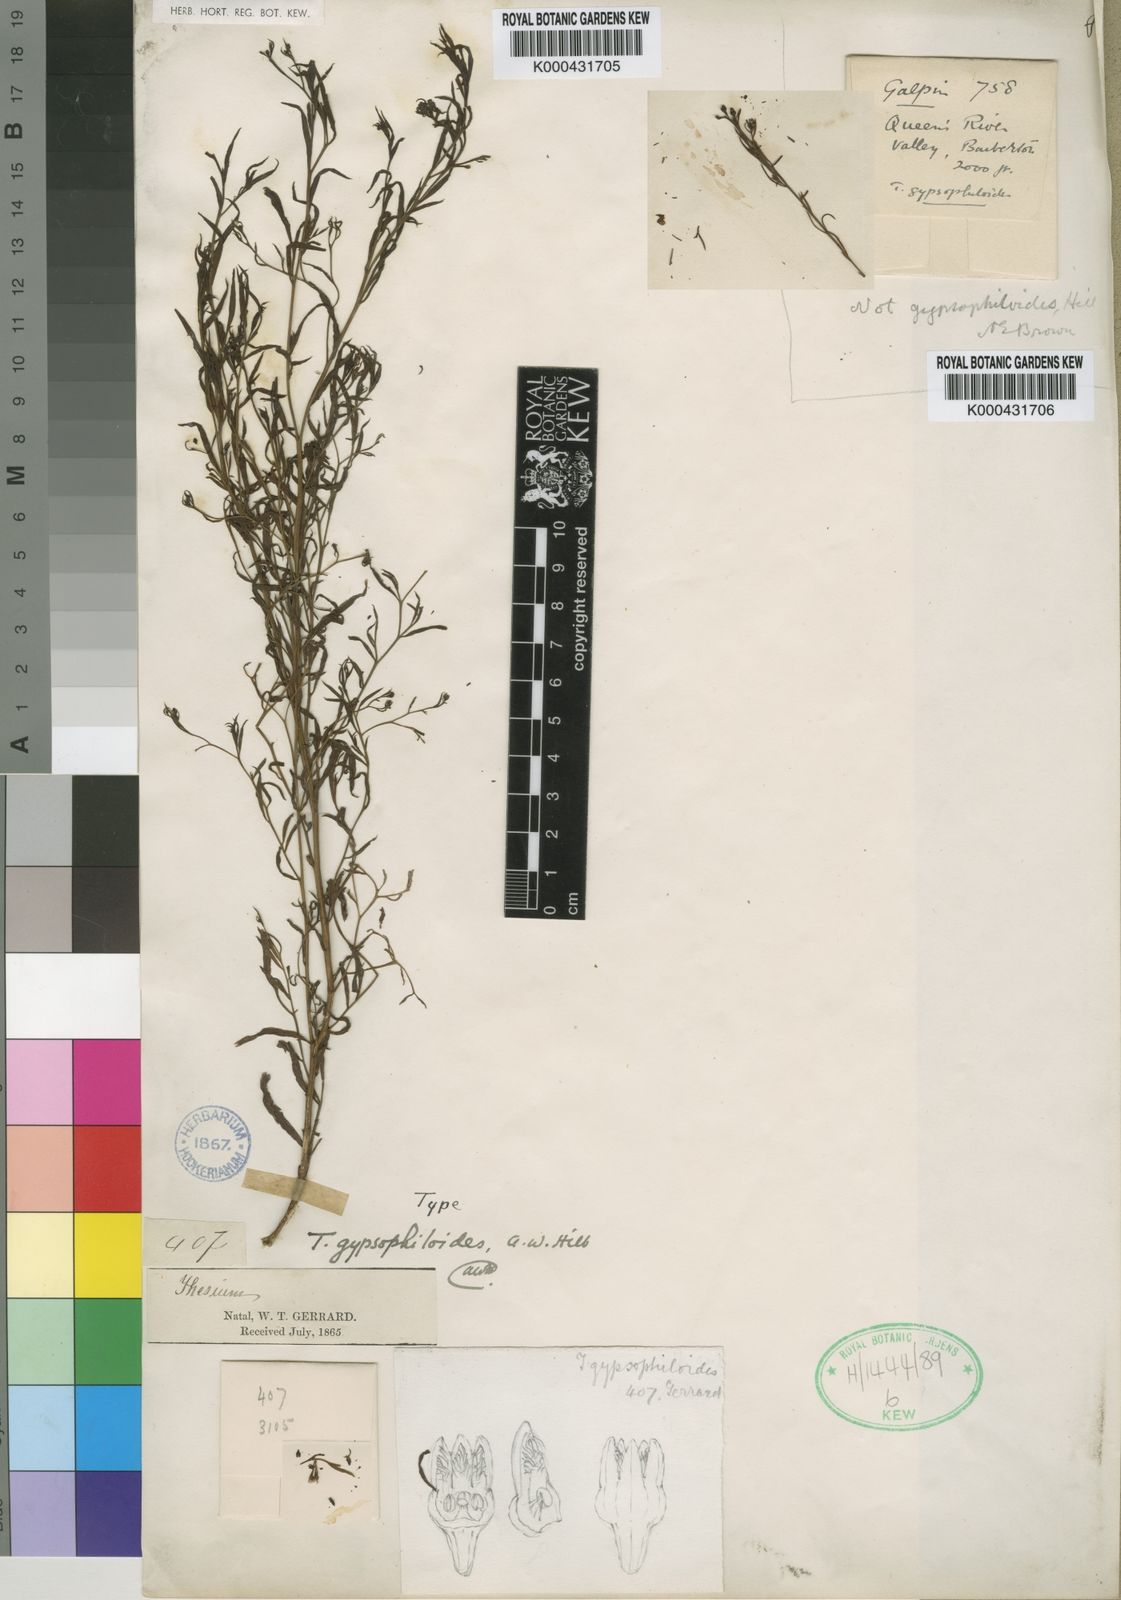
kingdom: Plantae
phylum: Tracheophyta
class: Magnoliopsida
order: Santalales
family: Thesiaceae
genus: Thesium
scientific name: Thesium gypsophiloides
